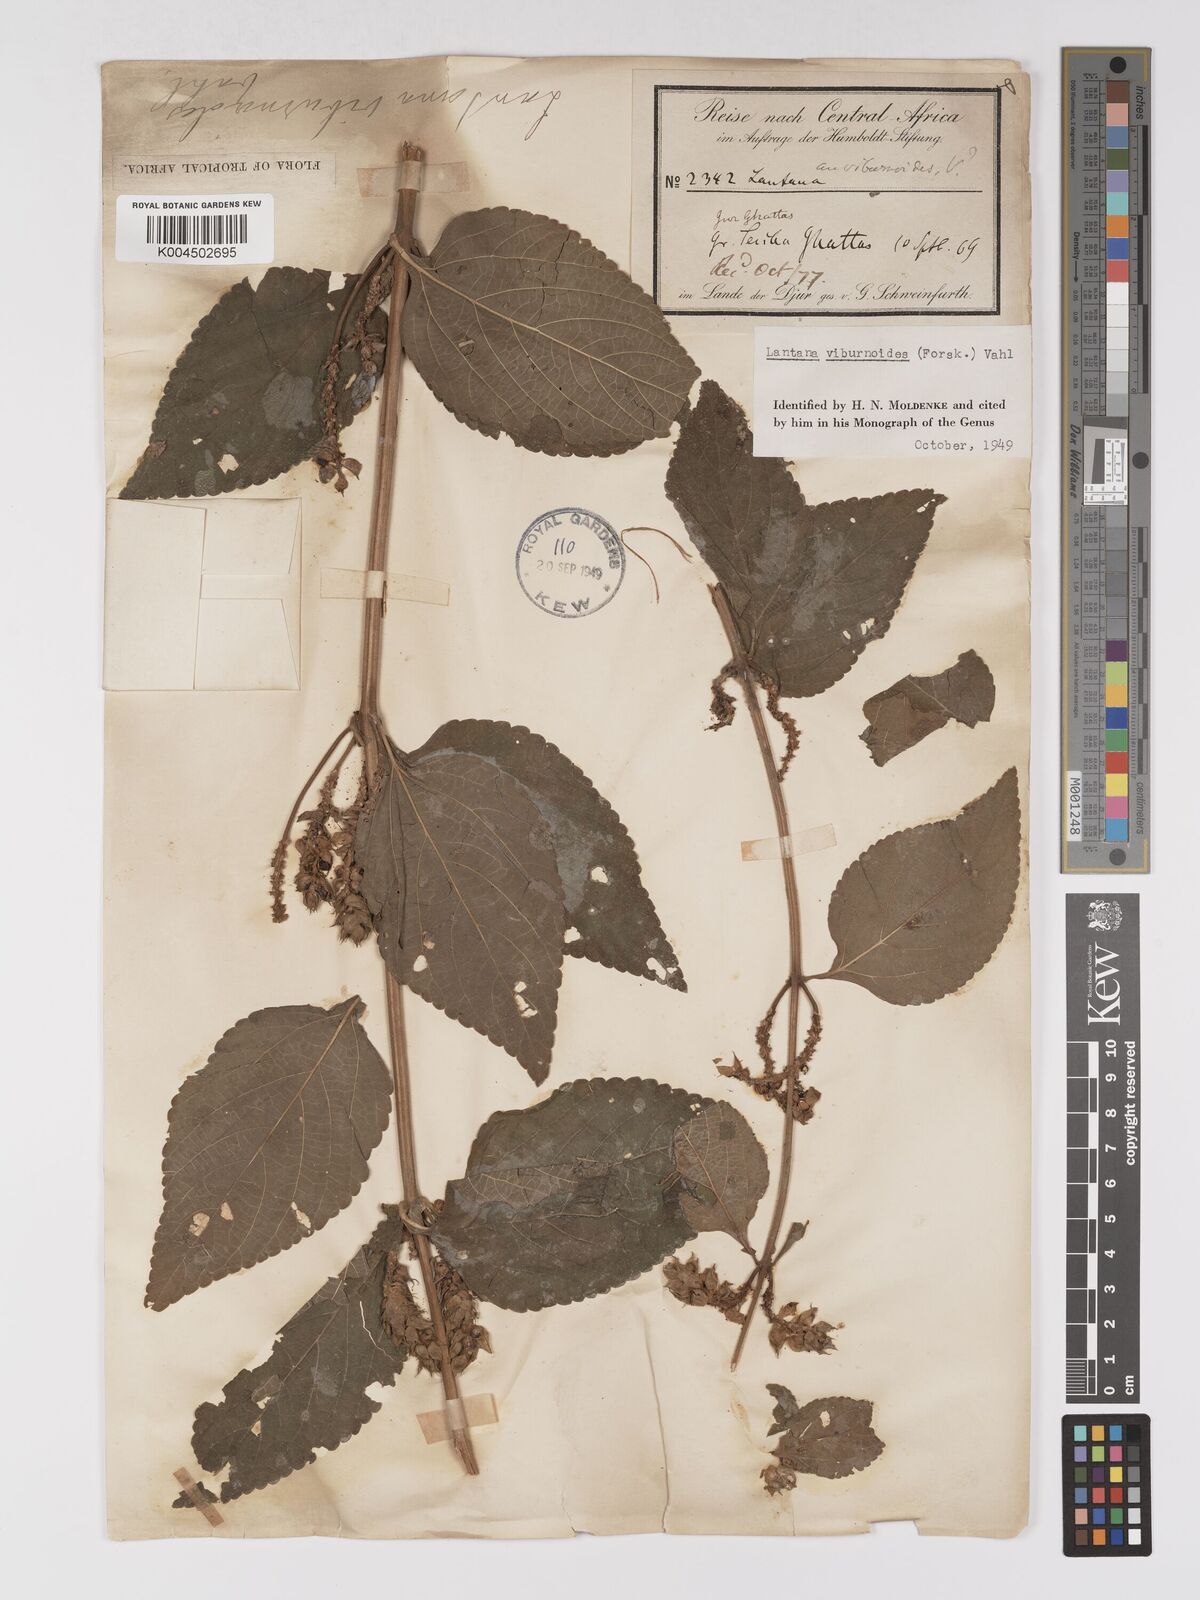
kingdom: Plantae
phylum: Tracheophyta
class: Magnoliopsida
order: Lamiales
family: Verbenaceae
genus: Lantana
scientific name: Lantana ukambensis
